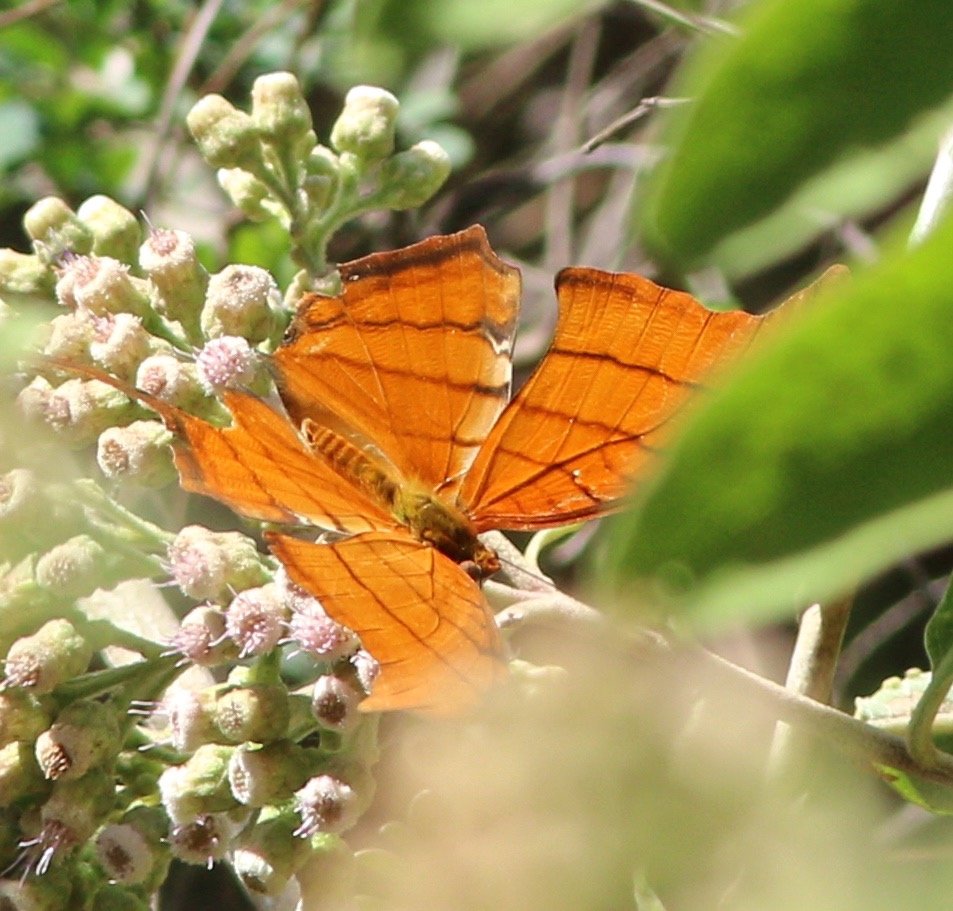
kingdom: Animalia
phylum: Arthropoda
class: Insecta
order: Lepidoptera
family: Nymphalidae
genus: Marpesia
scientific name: Marpesia petreus
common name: Ruddy Daggerwing
